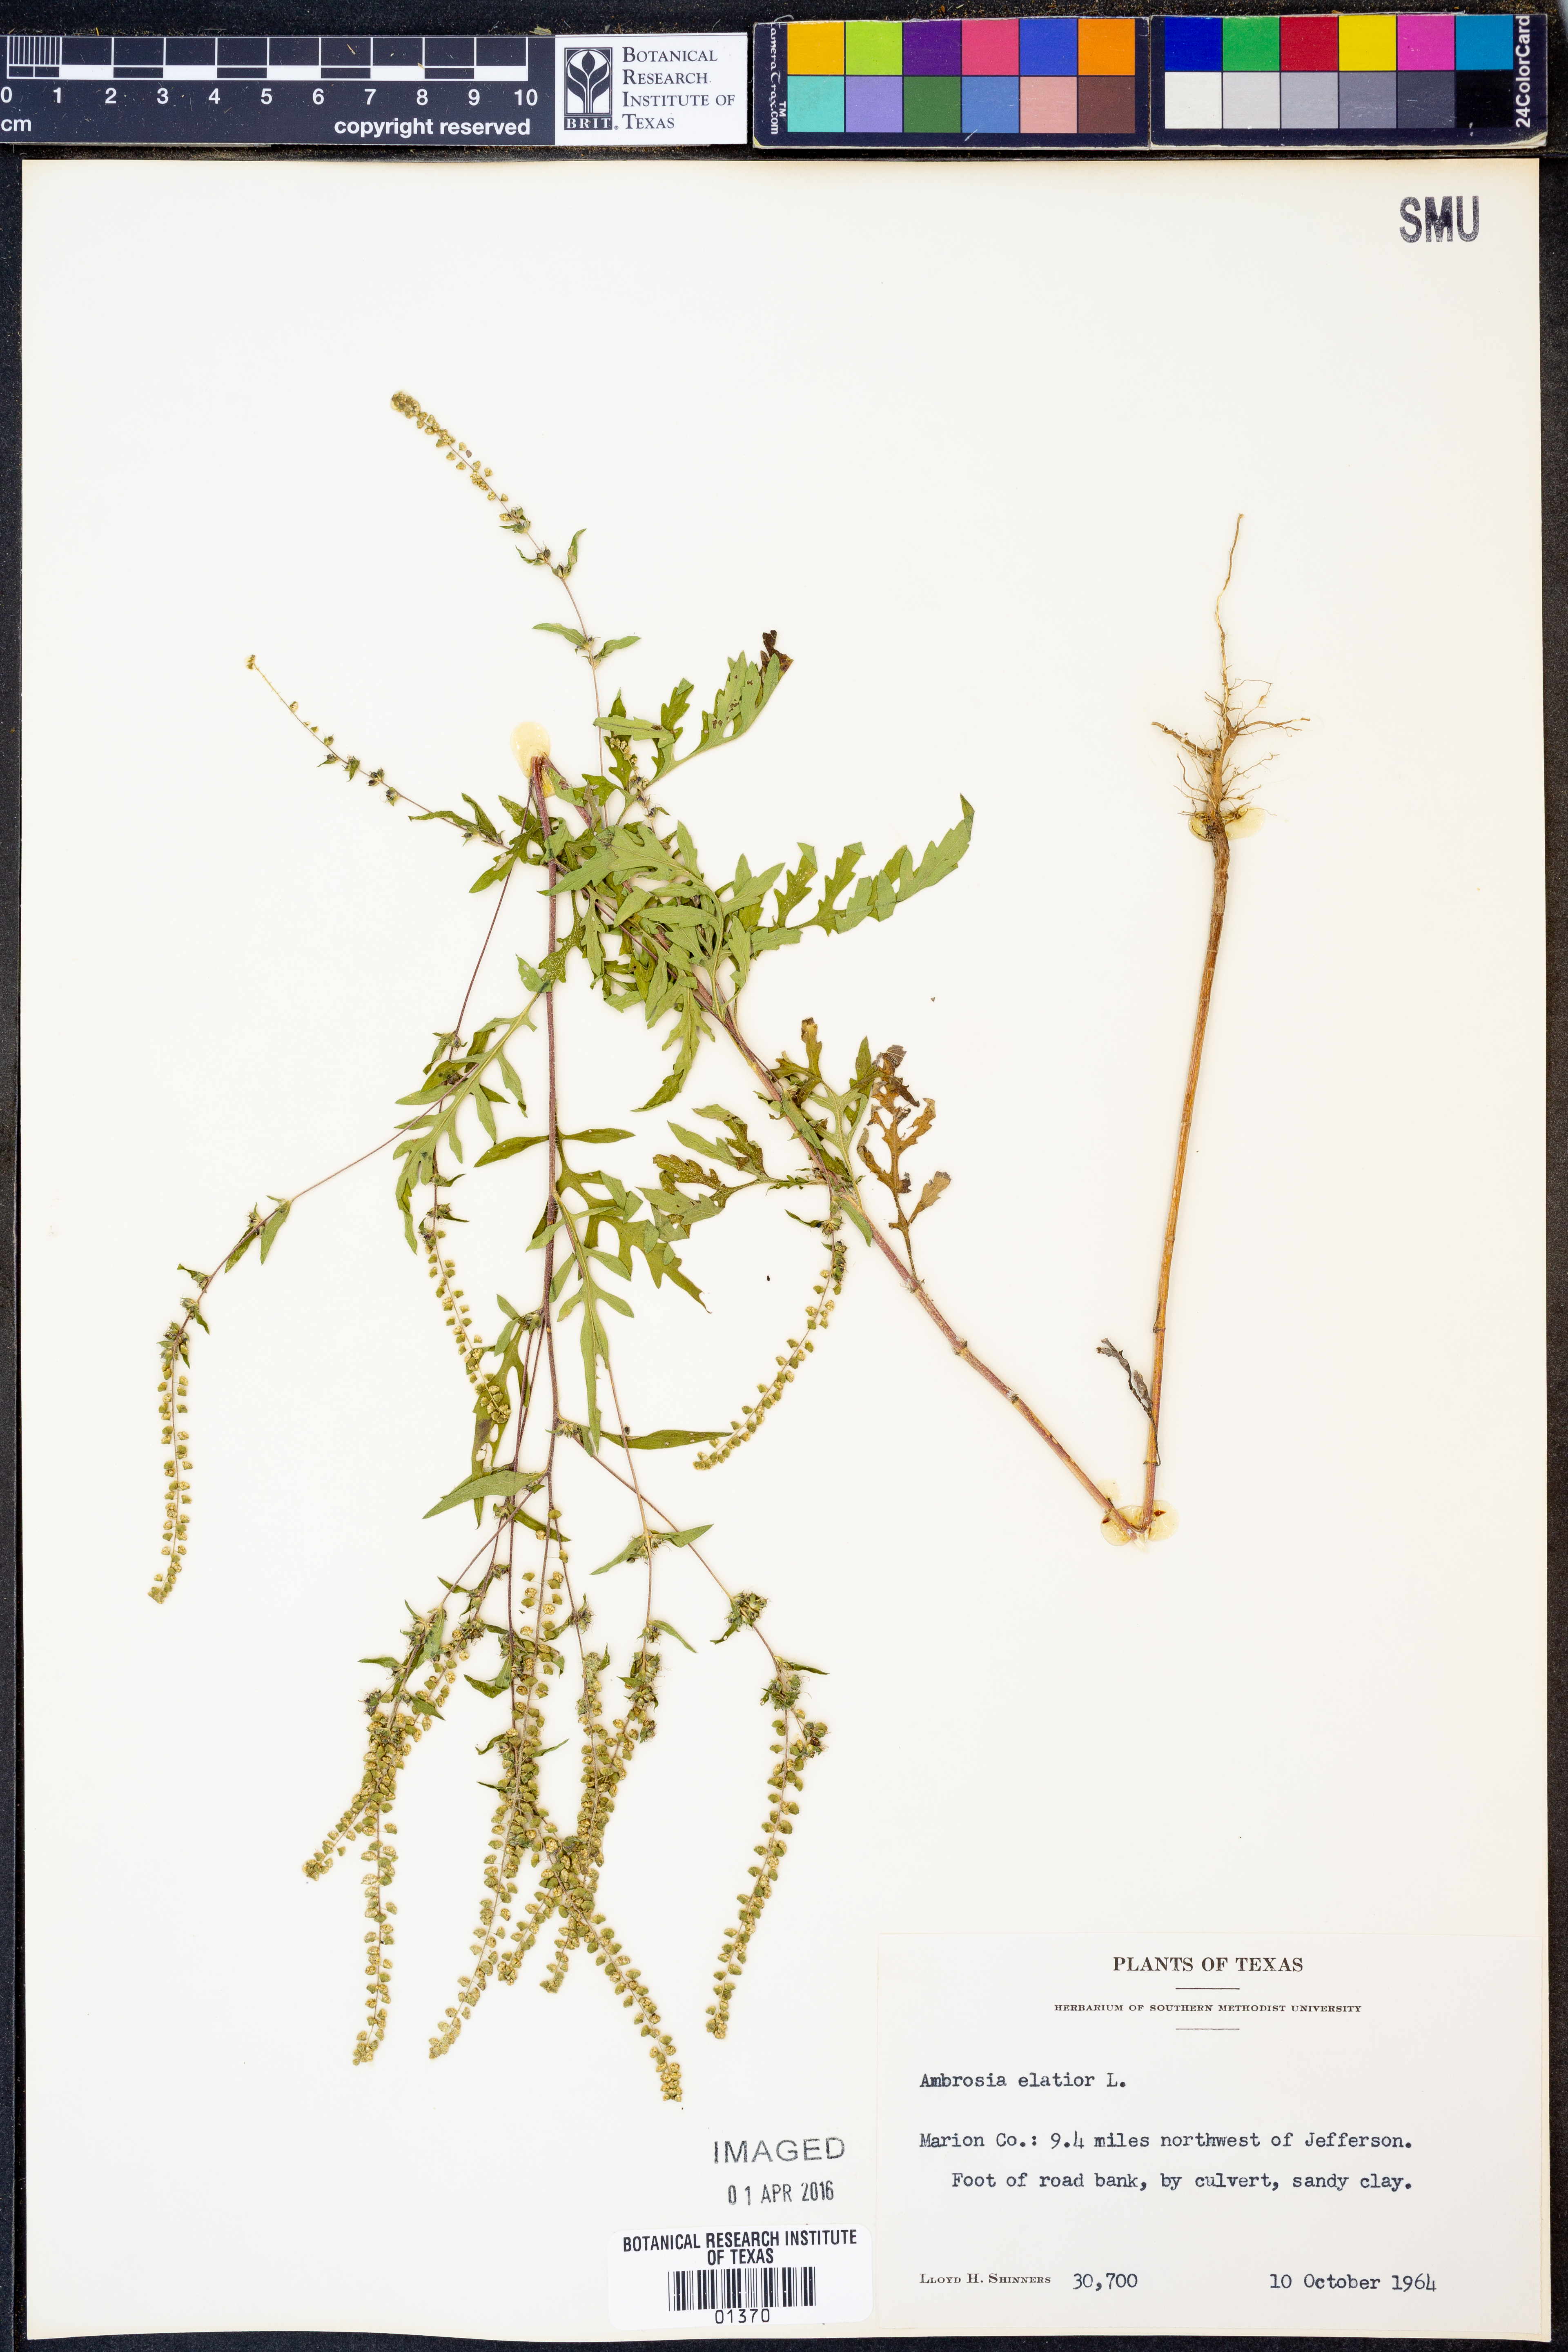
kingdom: Plantae
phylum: Tracheophyta
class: Magnoliopsida
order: Asterales
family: Asteraceae
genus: Ambrosia
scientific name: Ambrosia artemisiifolia
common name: Annual ragweed
